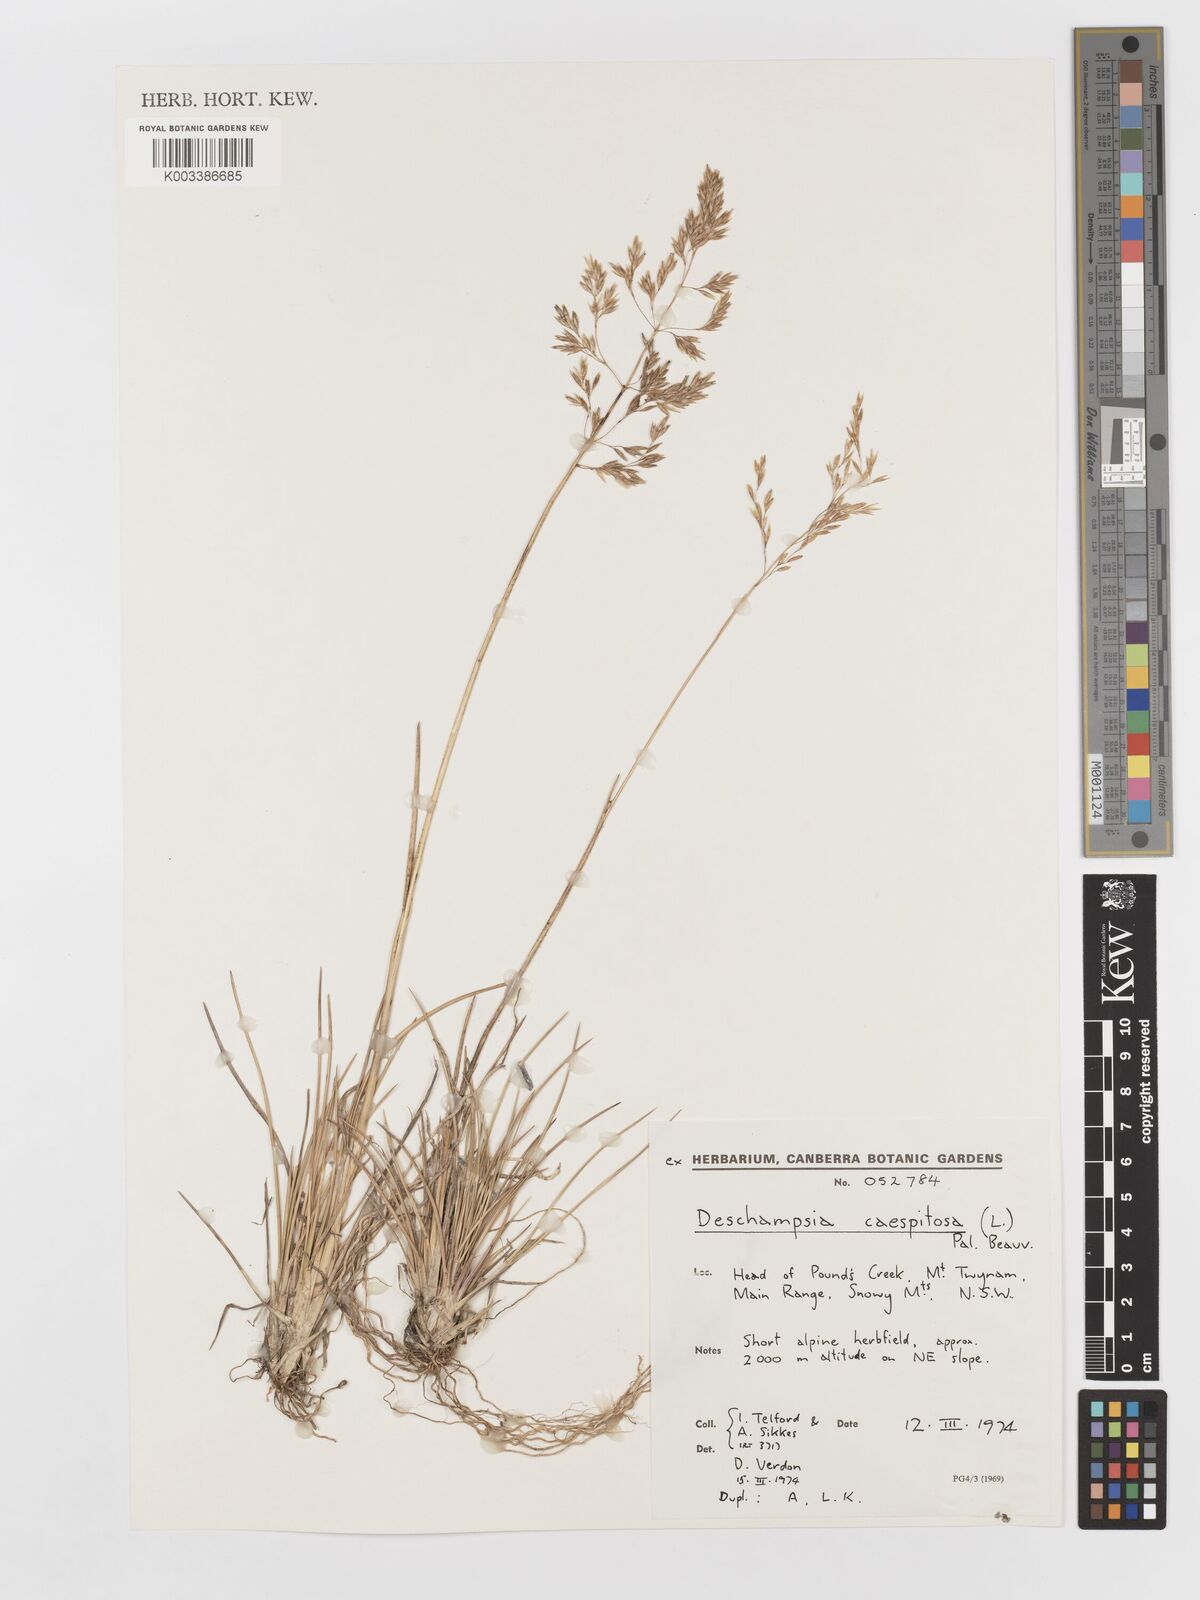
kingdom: Plantae
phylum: Tracheophyta
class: Liliopsida
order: Poales
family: Poaceae
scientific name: Poaceae
